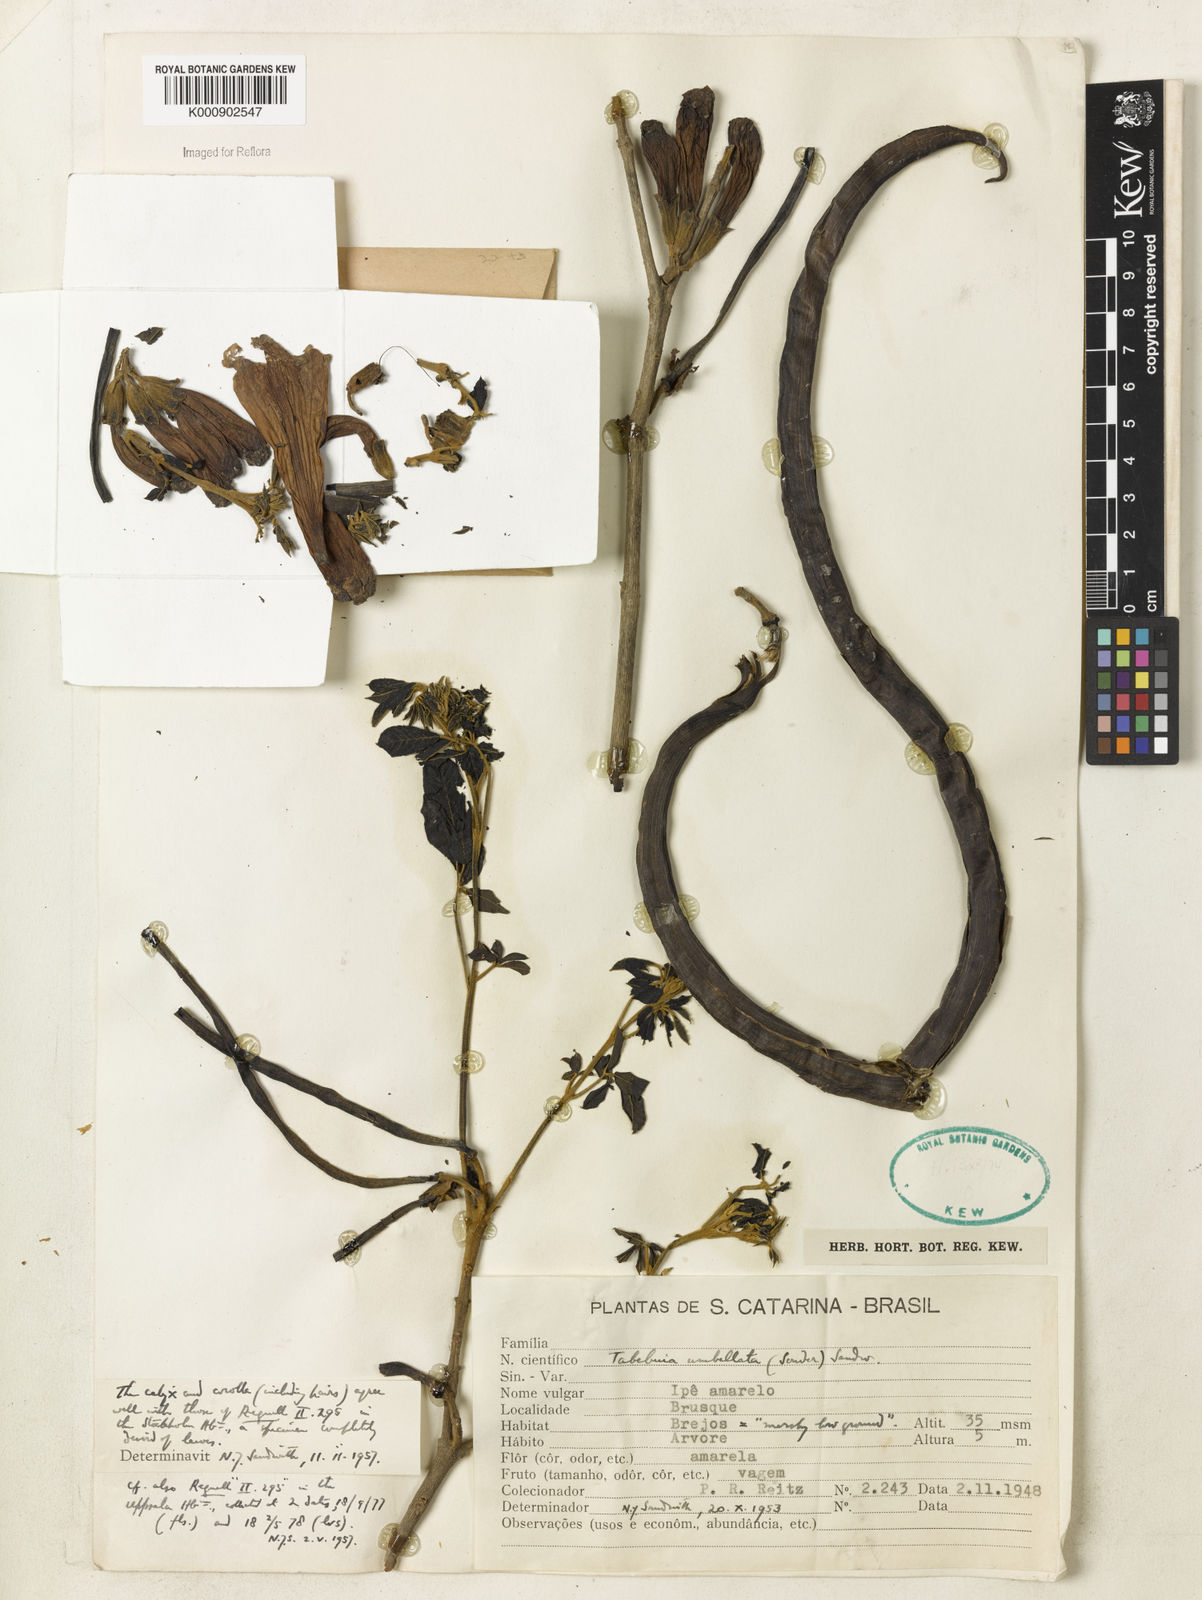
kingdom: Plantae
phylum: Tracheophyta
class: Magnoliopsida
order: Lamiales
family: Bignoniaceae
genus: Handroanthus
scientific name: Handroanthus umbellatus
